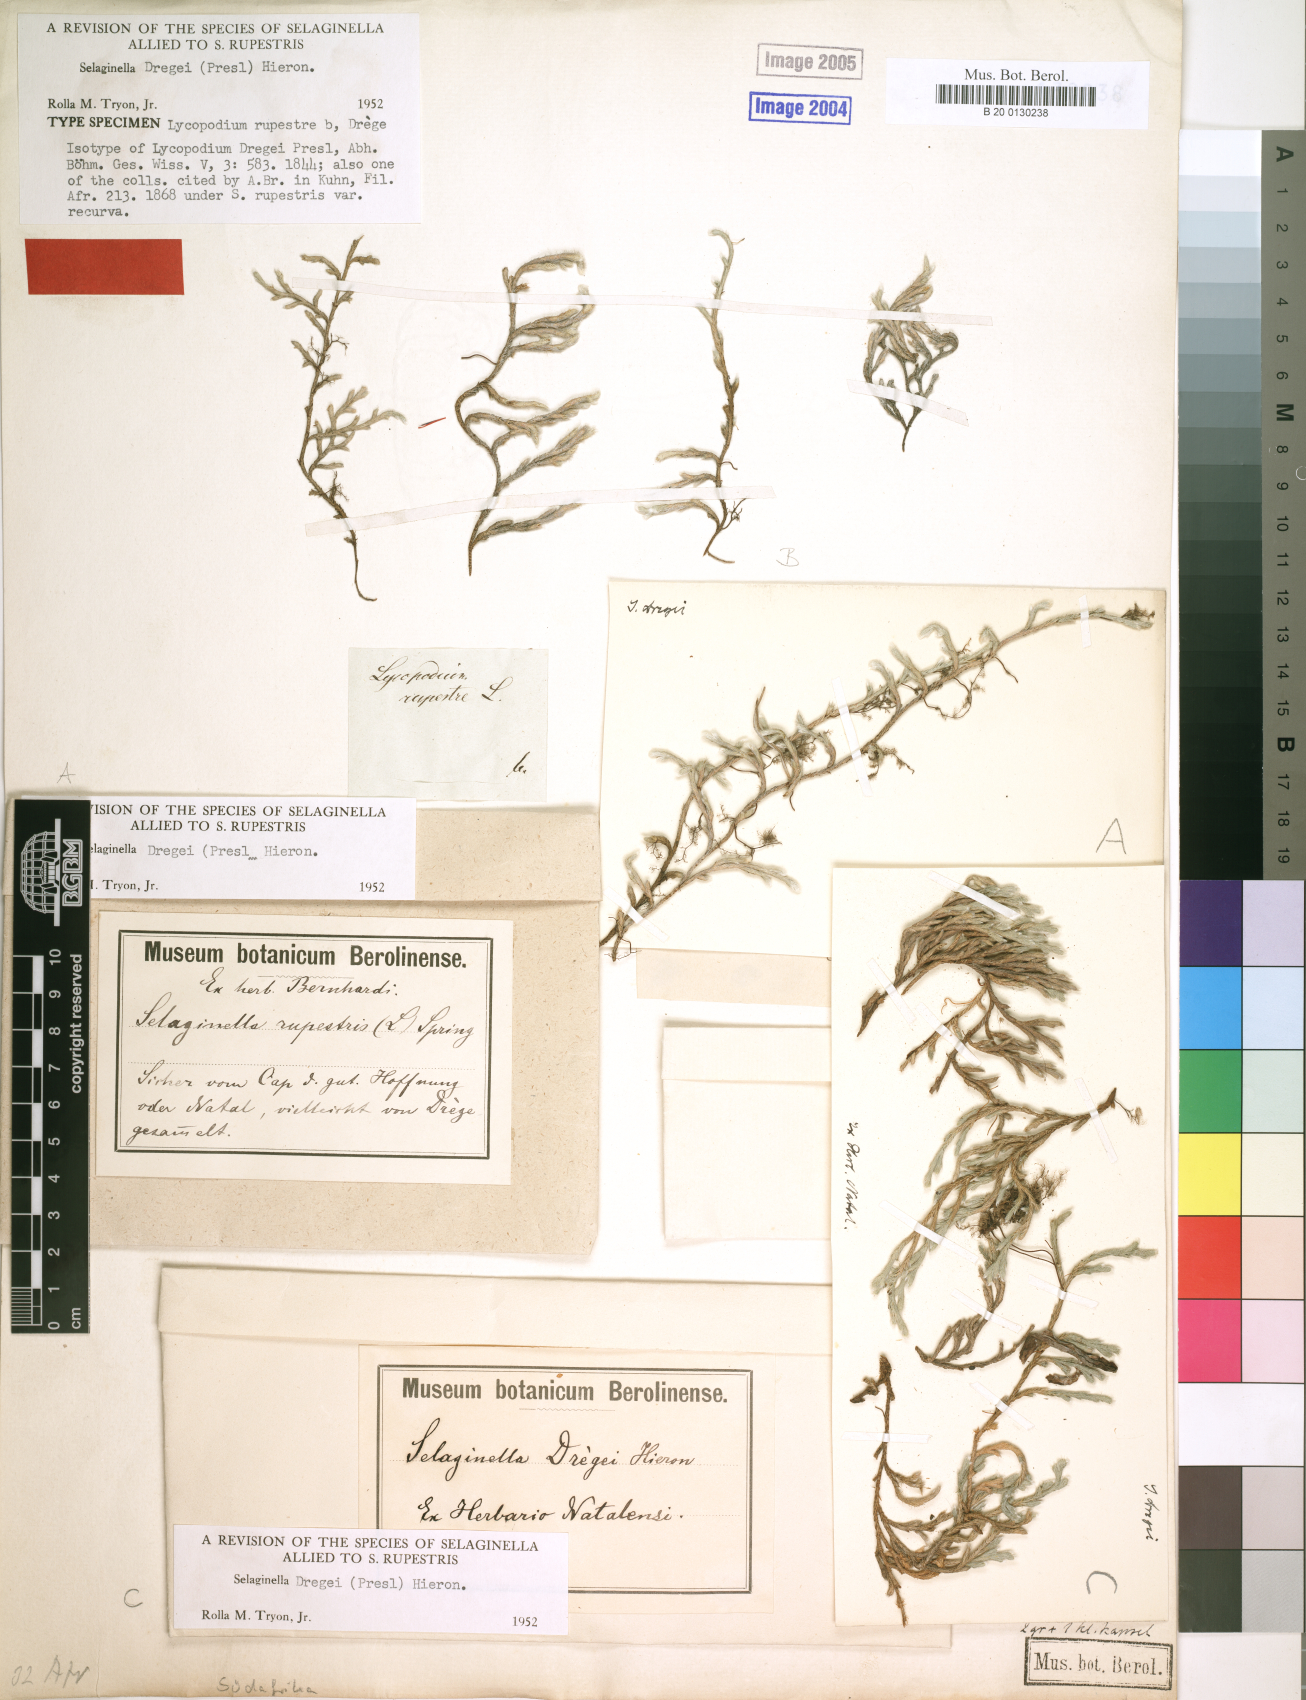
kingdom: Plantae
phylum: Tracheophyta
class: Lycopodiopsida
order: Selaginellales
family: Selaginellaceae
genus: Selaginella
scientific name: Selaginella dregei
